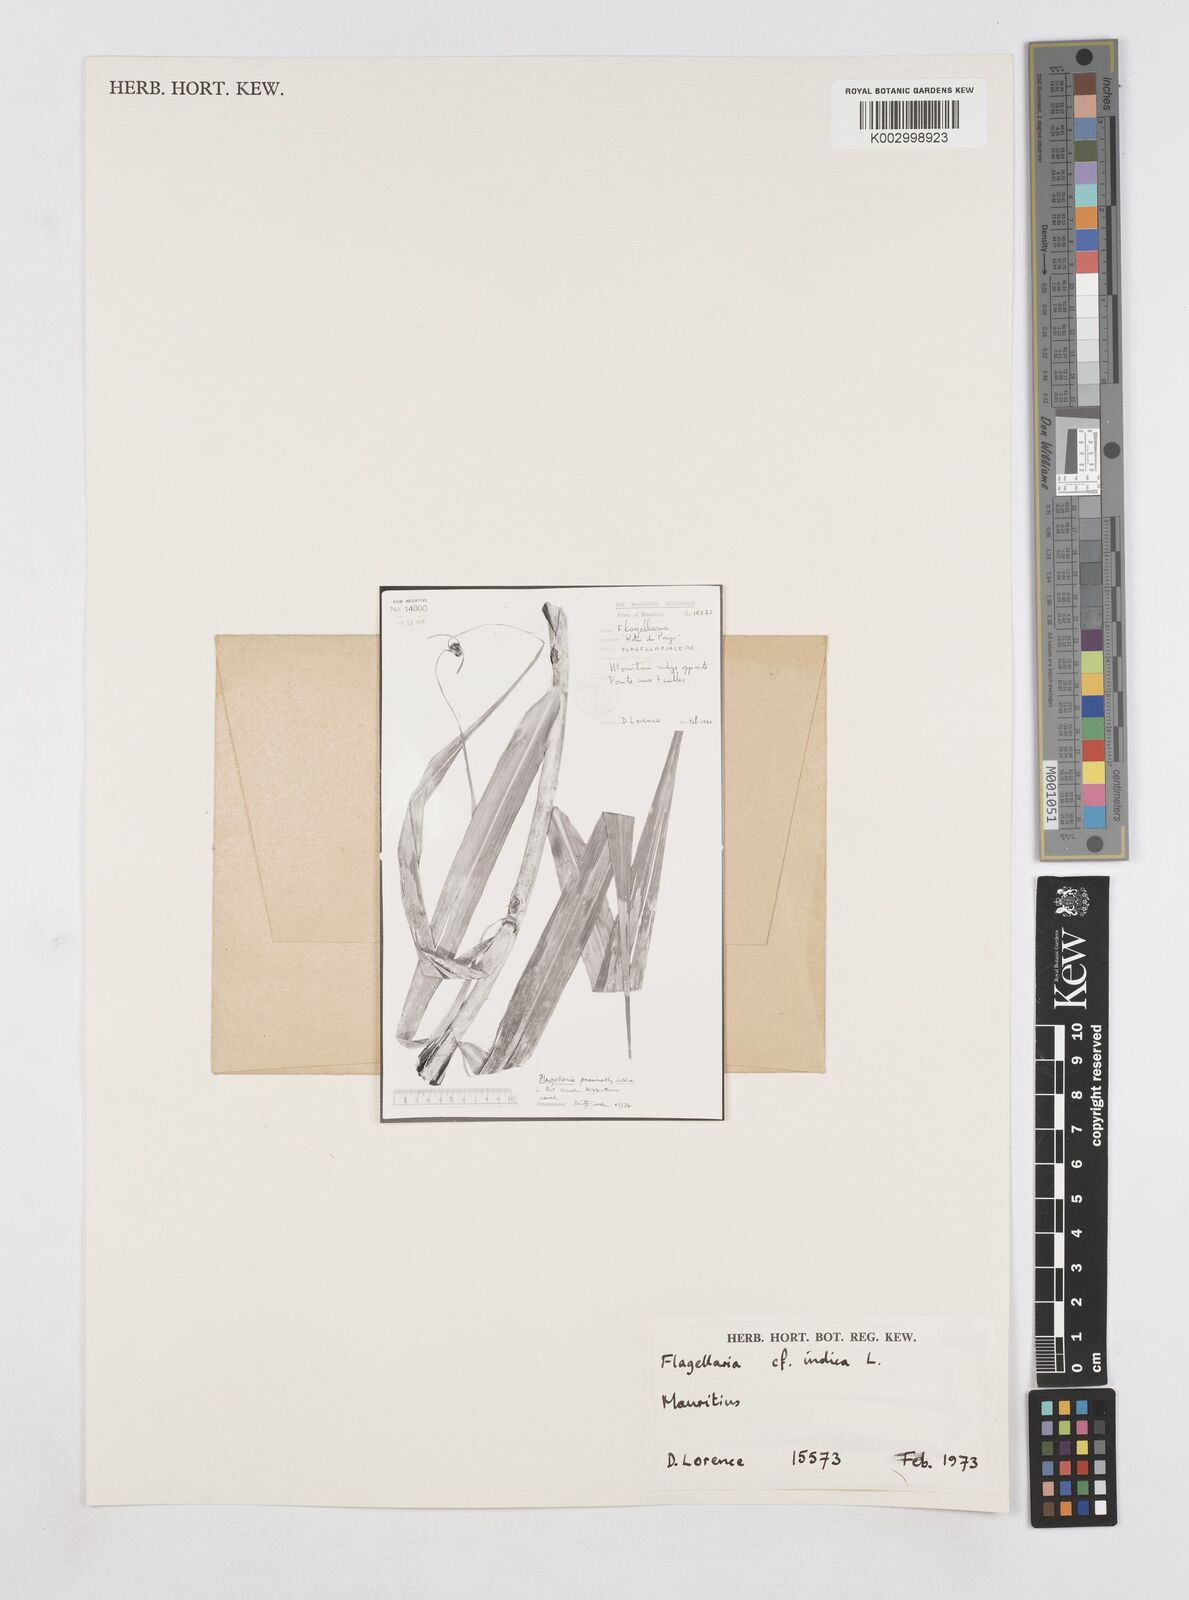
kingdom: Plantae
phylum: Tracheophyta
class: Liliopsida
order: Poales
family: Flagellariaceae
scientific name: Flagellariaceae
